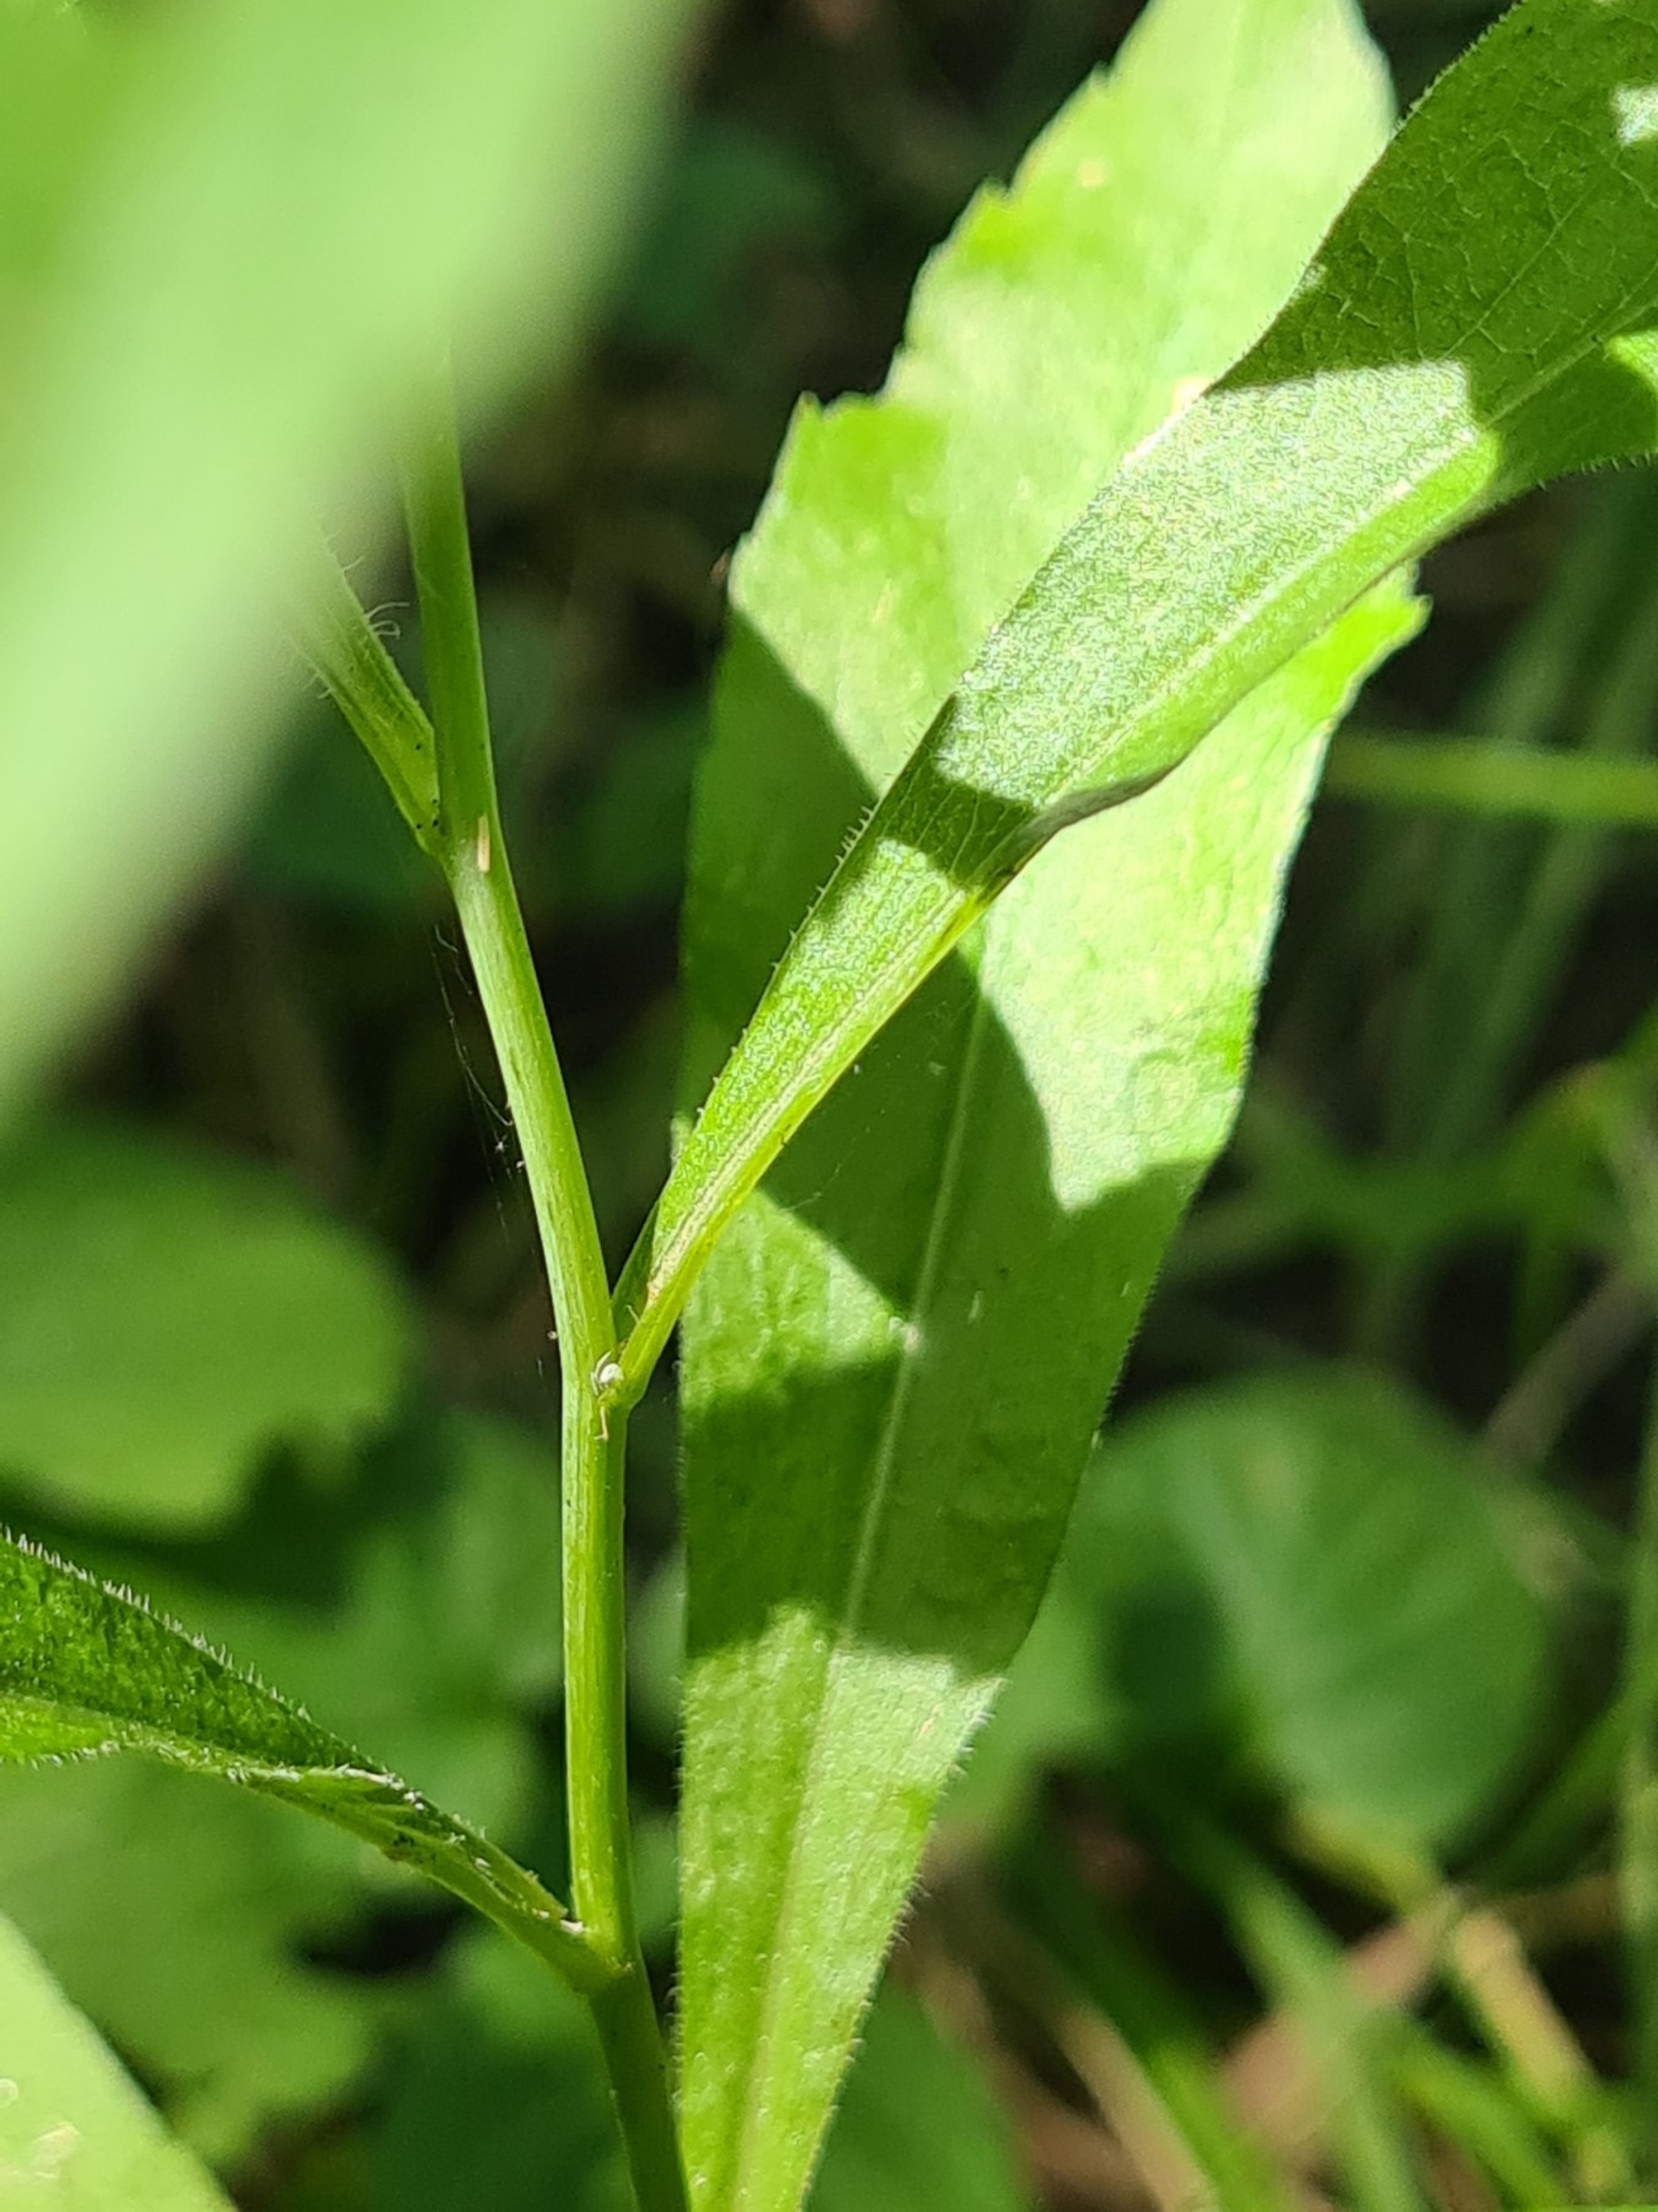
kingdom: Plantae
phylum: Tracheophyta
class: Magnoliopsida
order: Asterales
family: Asteraceae
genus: Solidago
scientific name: Solidago gigantea
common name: Sildig gyldenris
